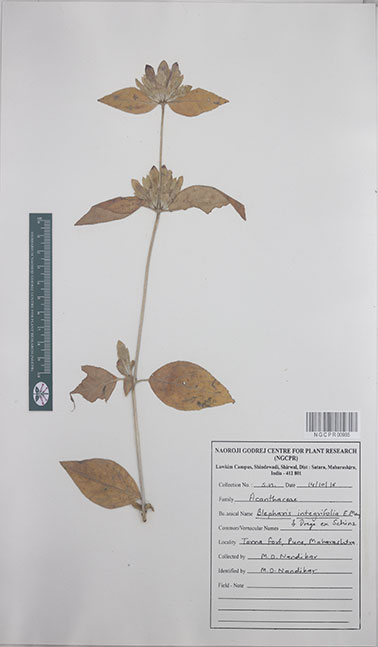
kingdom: Plantae
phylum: Tracheophyta
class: Magnoliopsida
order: Lamiales
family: Acanthaceae
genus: Blepharis
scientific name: Blepharis integrifolia
